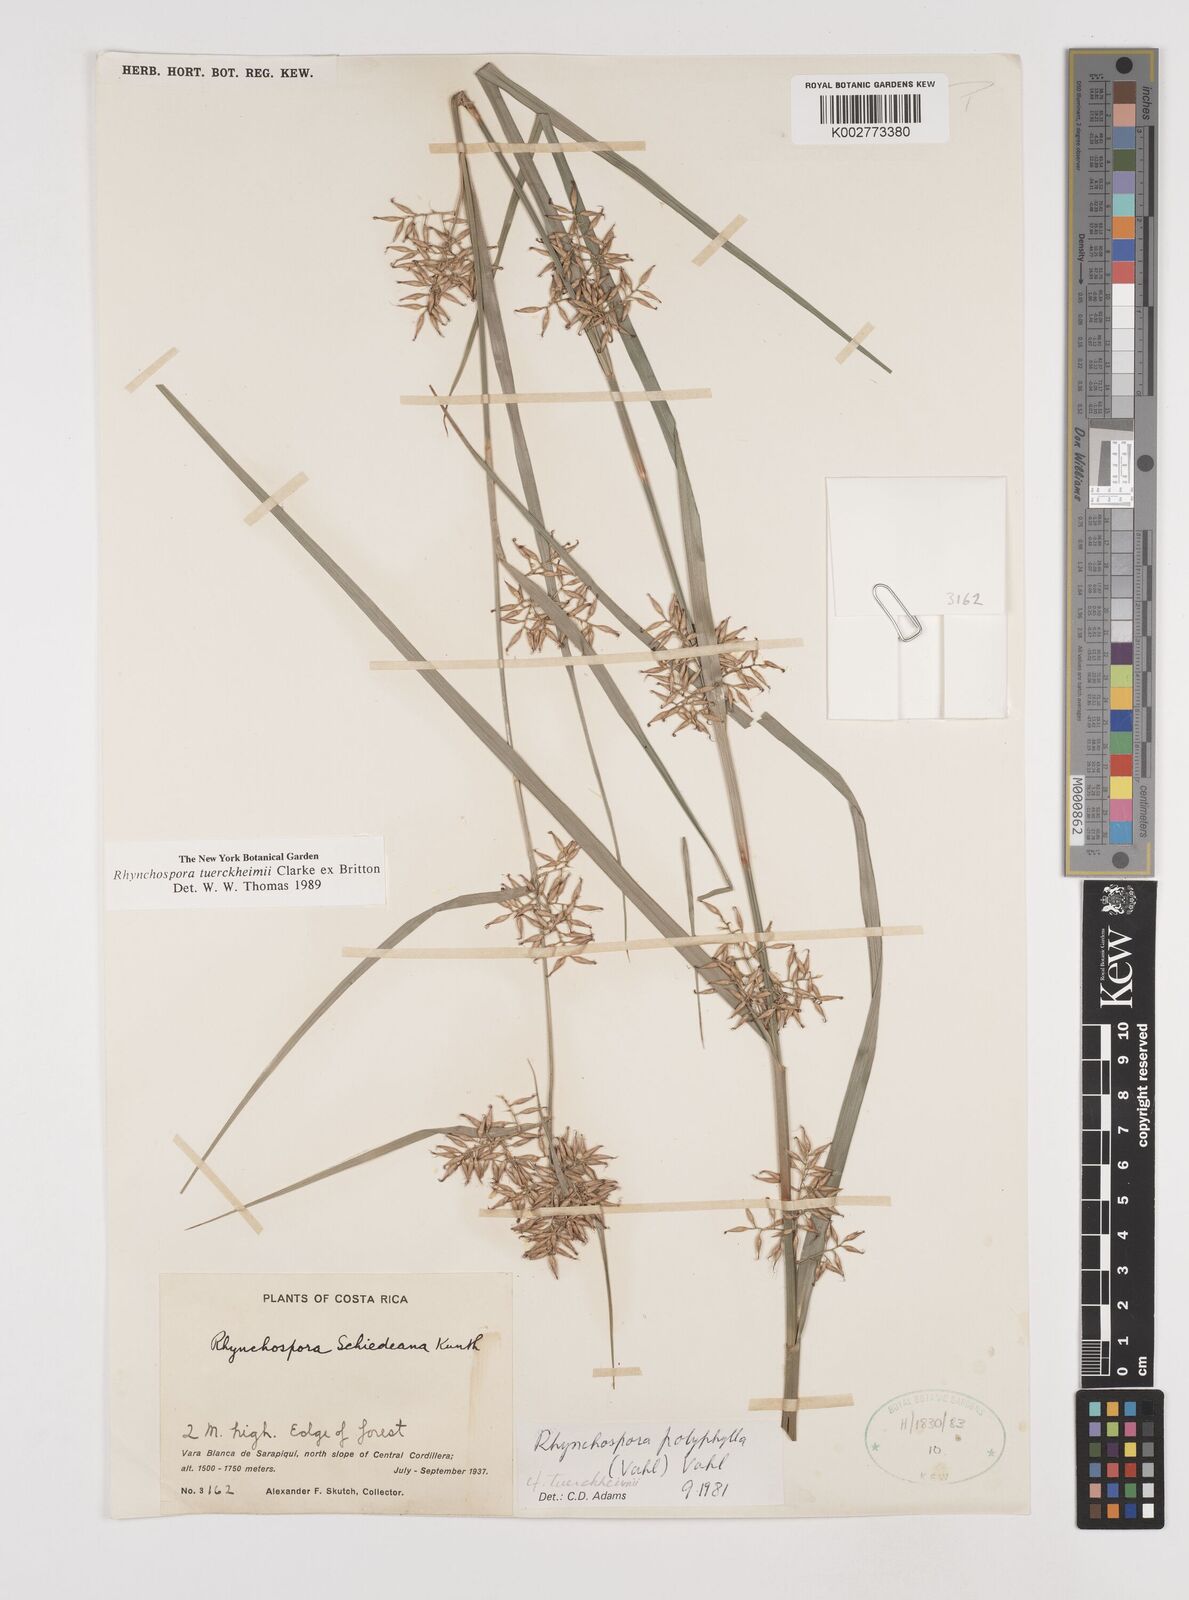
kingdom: Plantae
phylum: Tracheophyta
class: Liliopsida
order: Poales
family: Cyperaceae
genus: Rhynchospora
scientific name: Rhynchospora tuerckheimii
